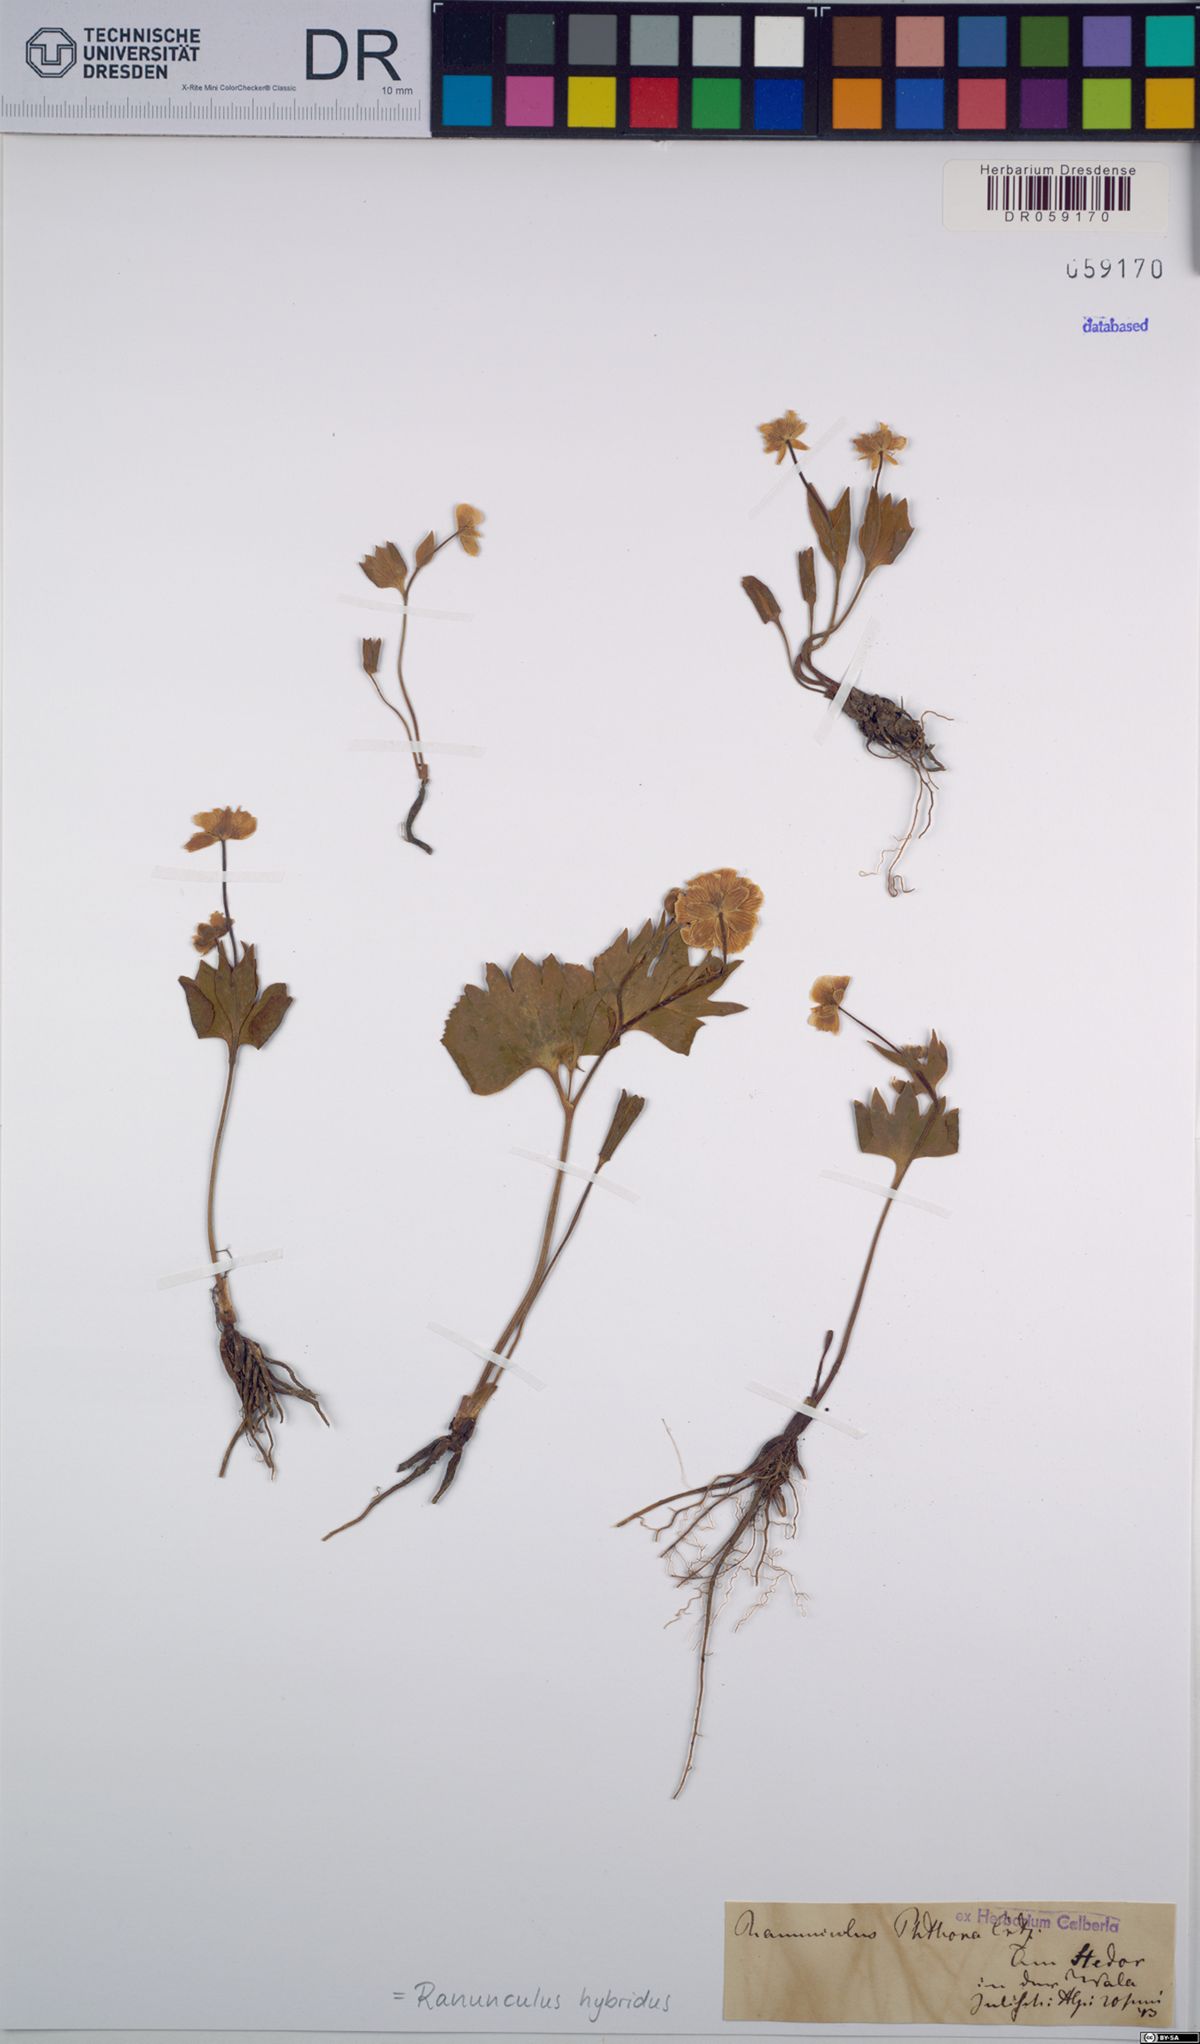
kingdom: Plantae
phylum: Tracheophyta
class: Magnoliopsida
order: Ranunculales
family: Ranunculaceae
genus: Ranunculus
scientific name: Ranunculus hybridus
